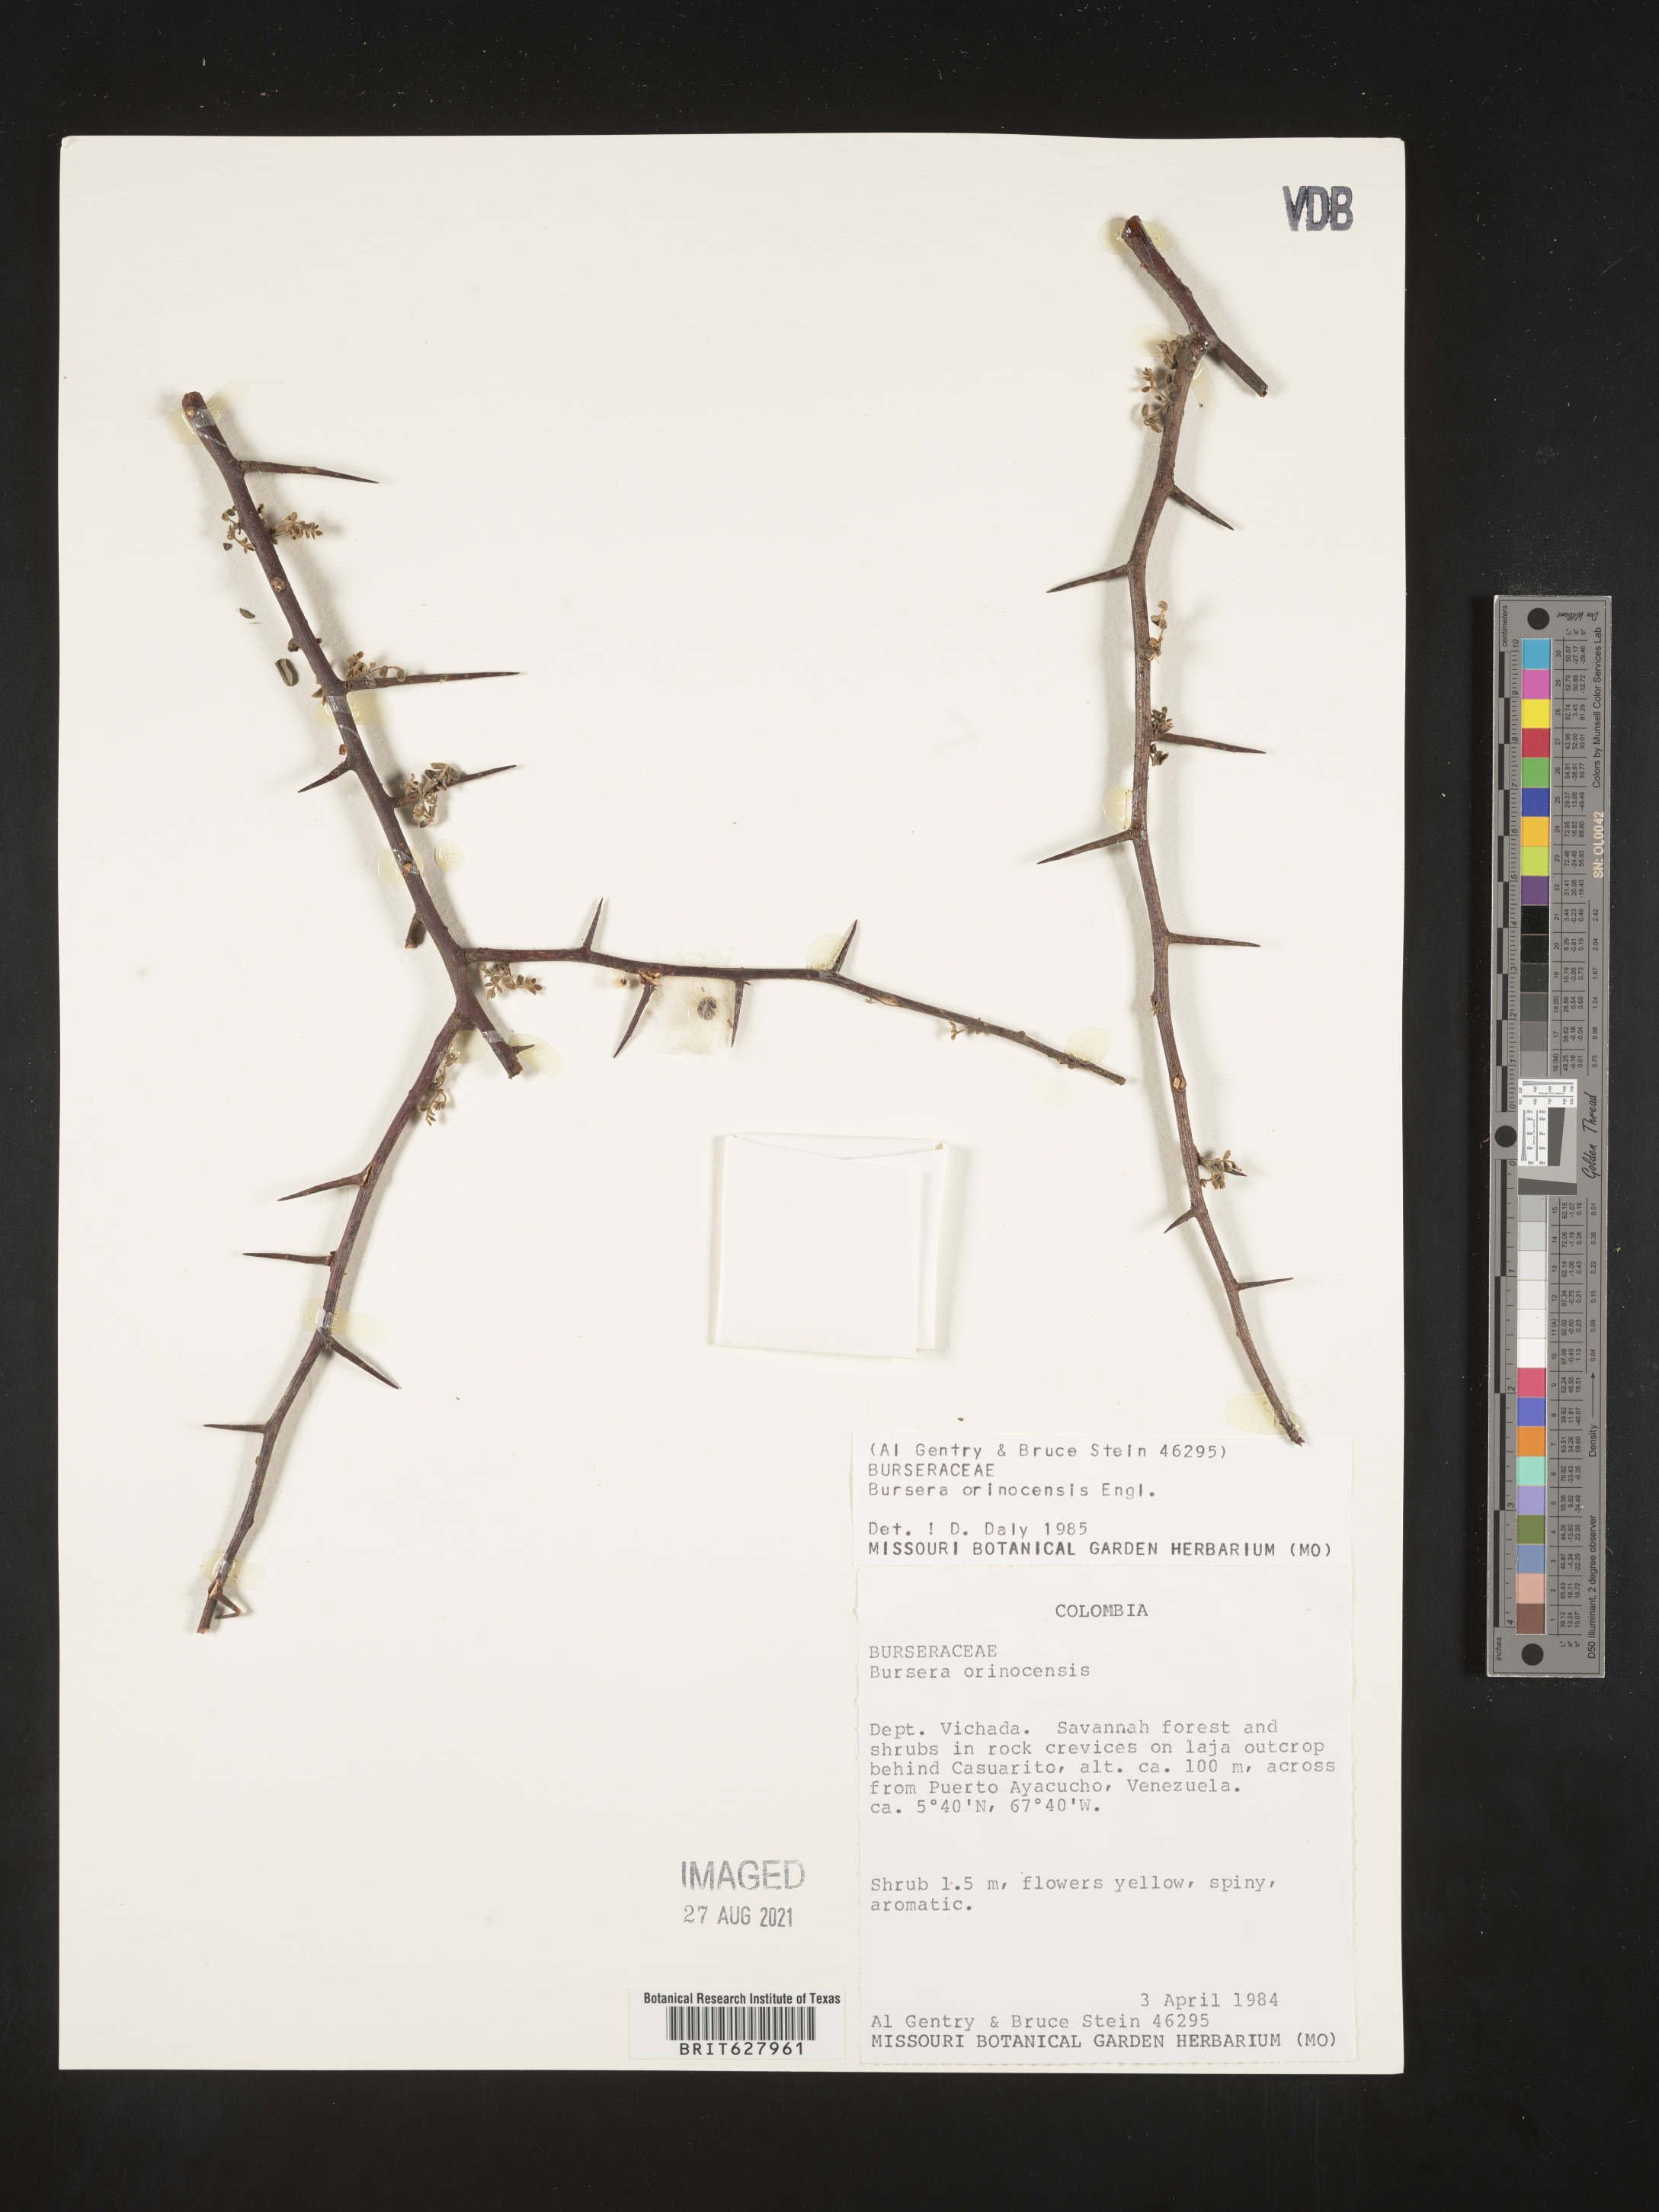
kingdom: Plantae
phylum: Tracheophyta
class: Magnoliopsida
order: Sapindales
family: Burseraceae
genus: Bursera
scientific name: Bursera leptophloeos
